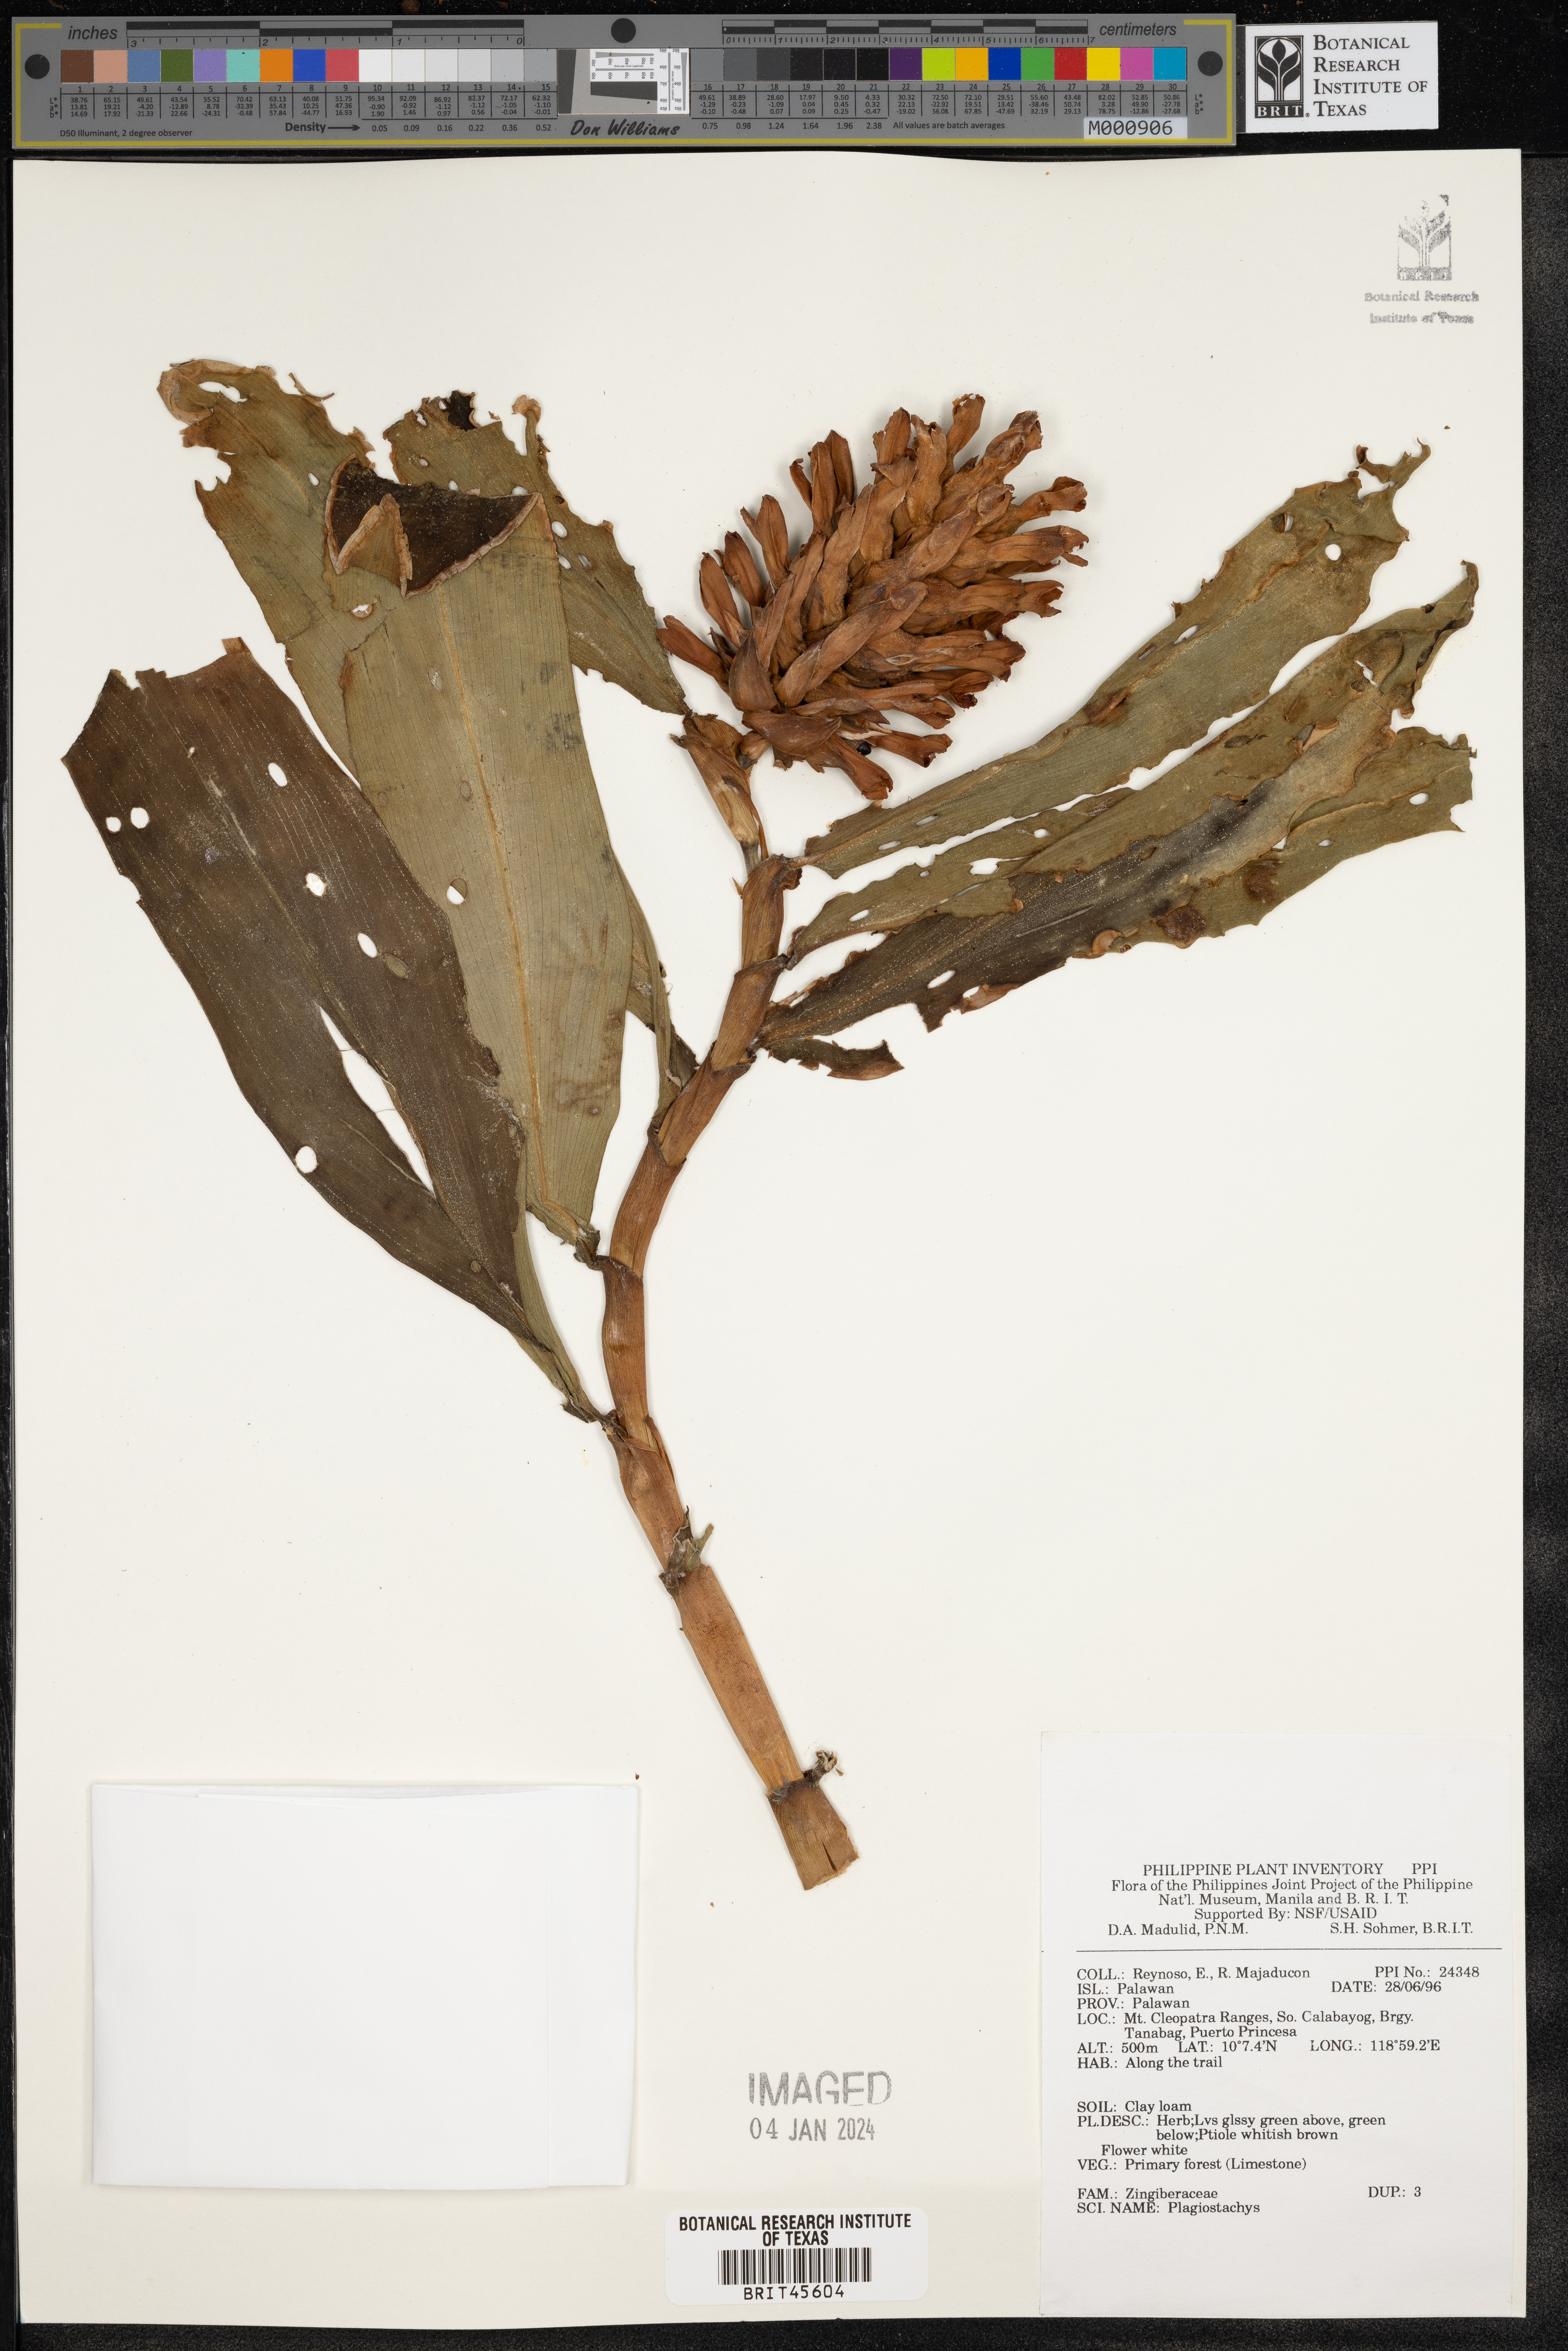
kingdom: Plantae
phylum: Tracheophyta
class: Liliopsida
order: Zingiberales
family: Zingiberaceae
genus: Plagiostachys
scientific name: Plagiostachys
